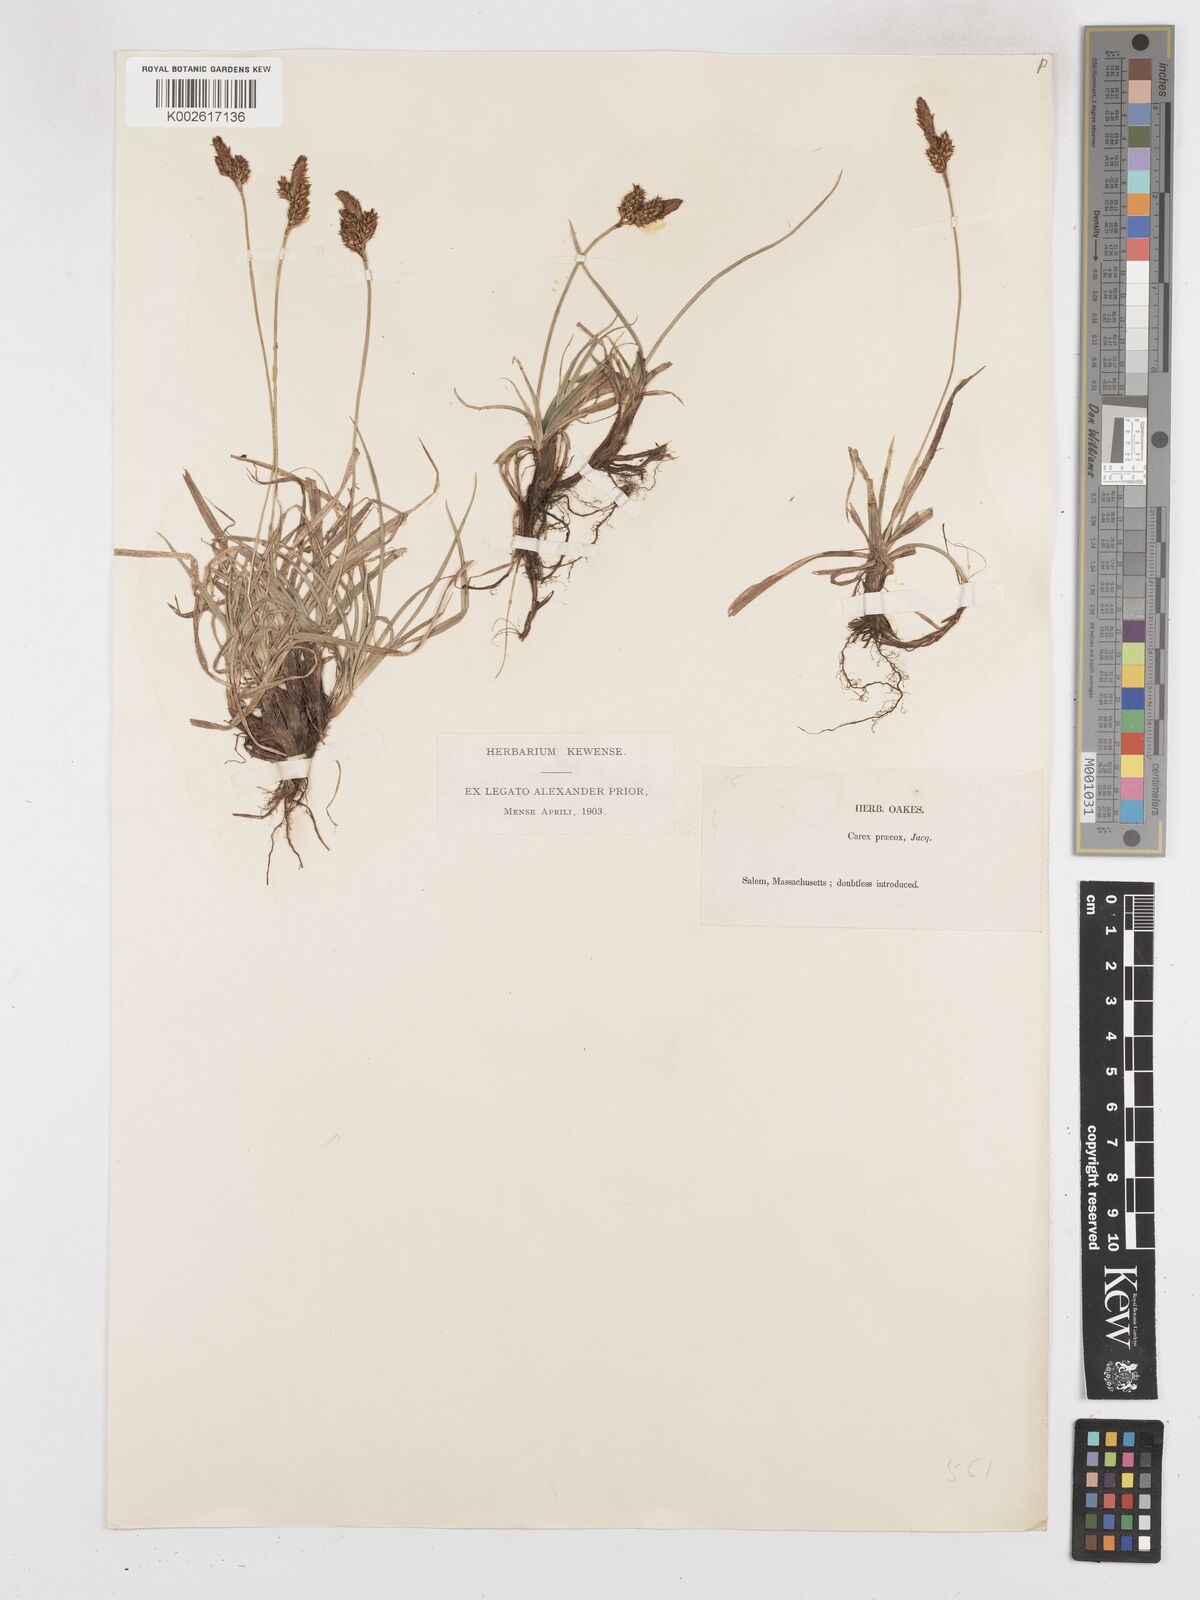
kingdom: Plantae
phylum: Tracheophyta
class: Liliopsida
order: Poales
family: Cyperaceae
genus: Carex
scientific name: Carex caryophyllea
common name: Spring sedge
